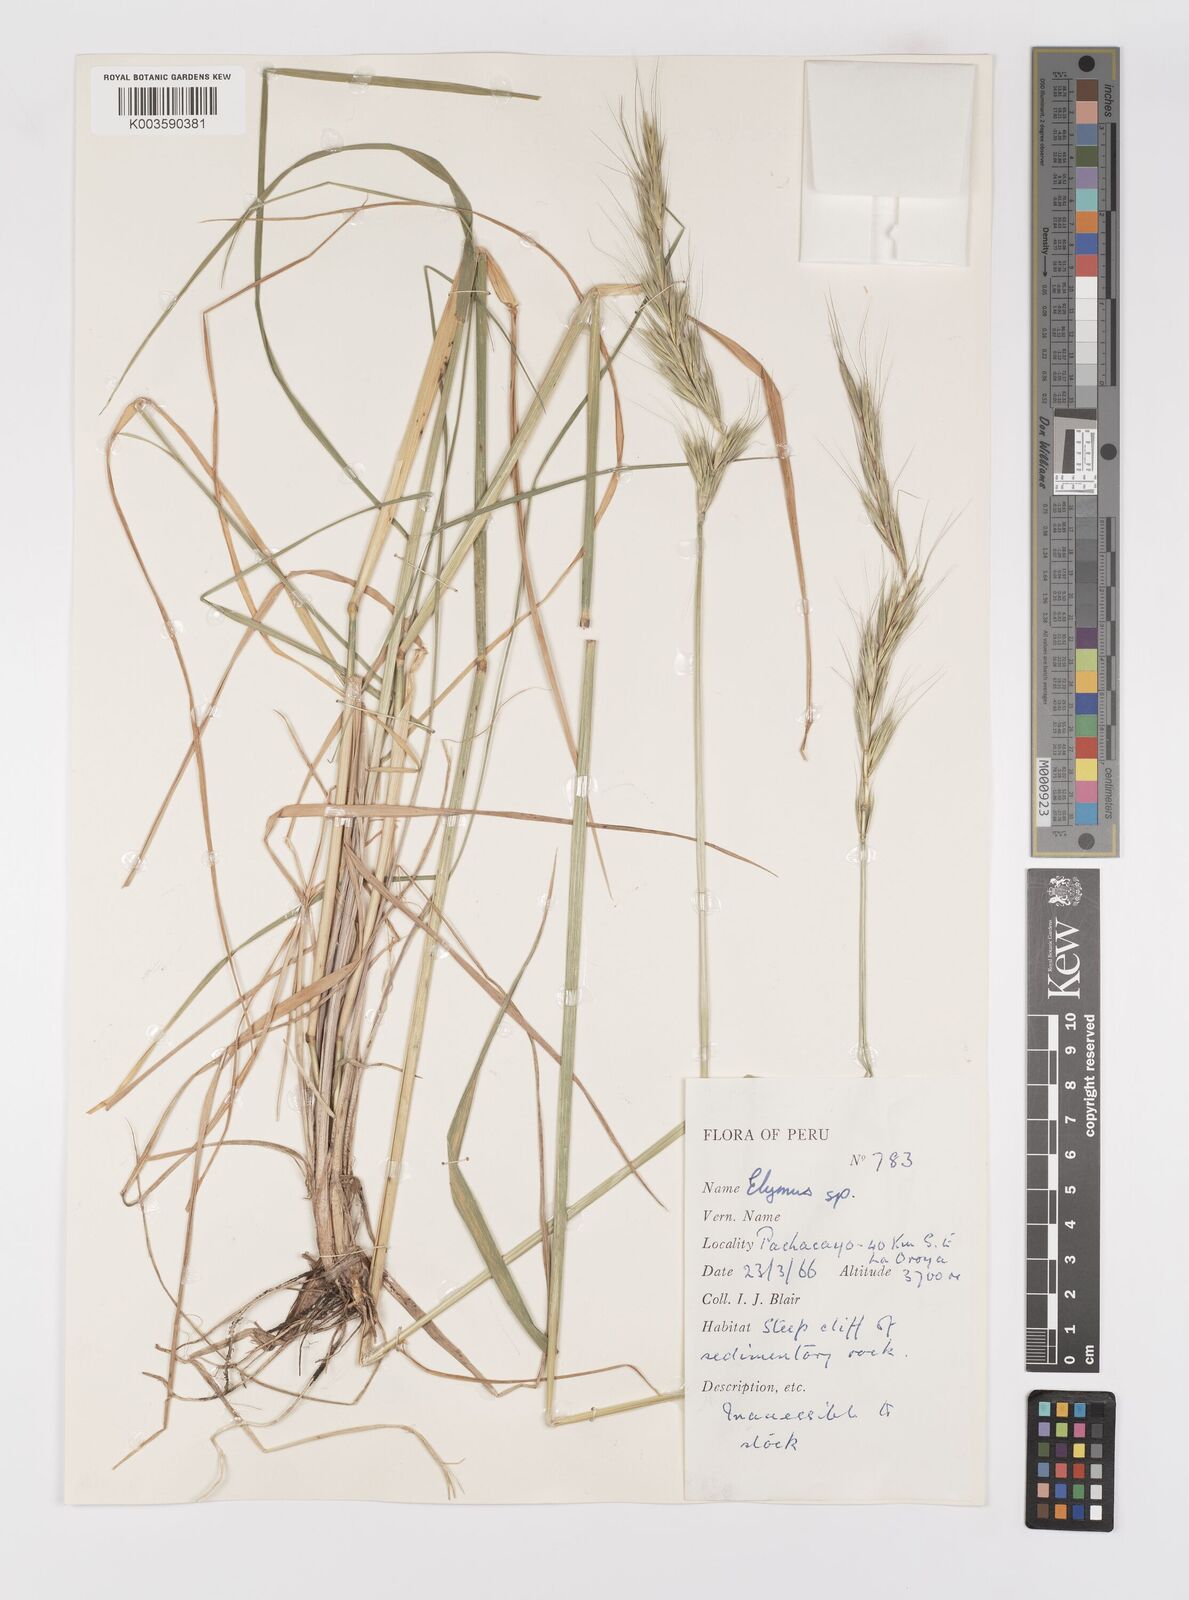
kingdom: Plantae
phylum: Tracheophyta
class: Liliopsida
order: Poales
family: Poaceae
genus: Elymus
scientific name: Elymus angulatus
